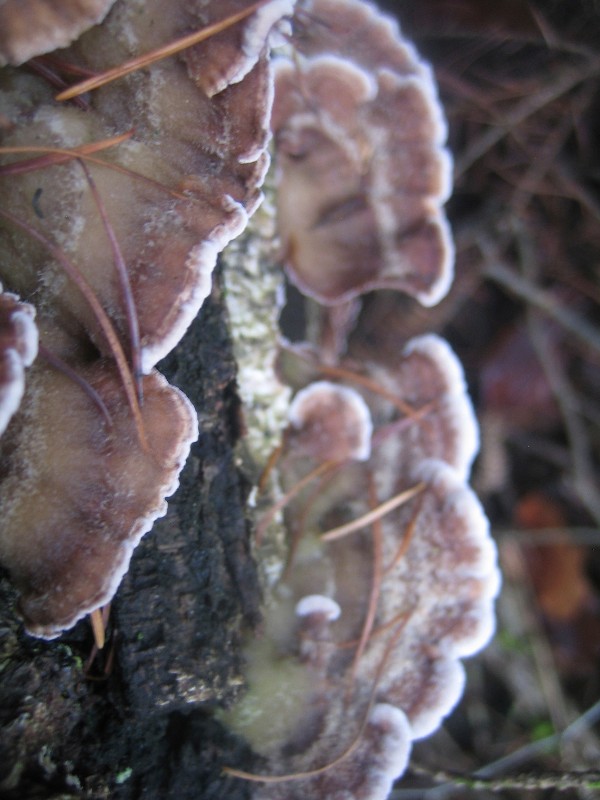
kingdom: Fungi
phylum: Basidiomycota
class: Agaricomycetes
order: Agaricales
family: Cyphellaceae
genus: Chondrostereum
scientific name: Chondrostereum purpureum
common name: purpurlædersvamp
